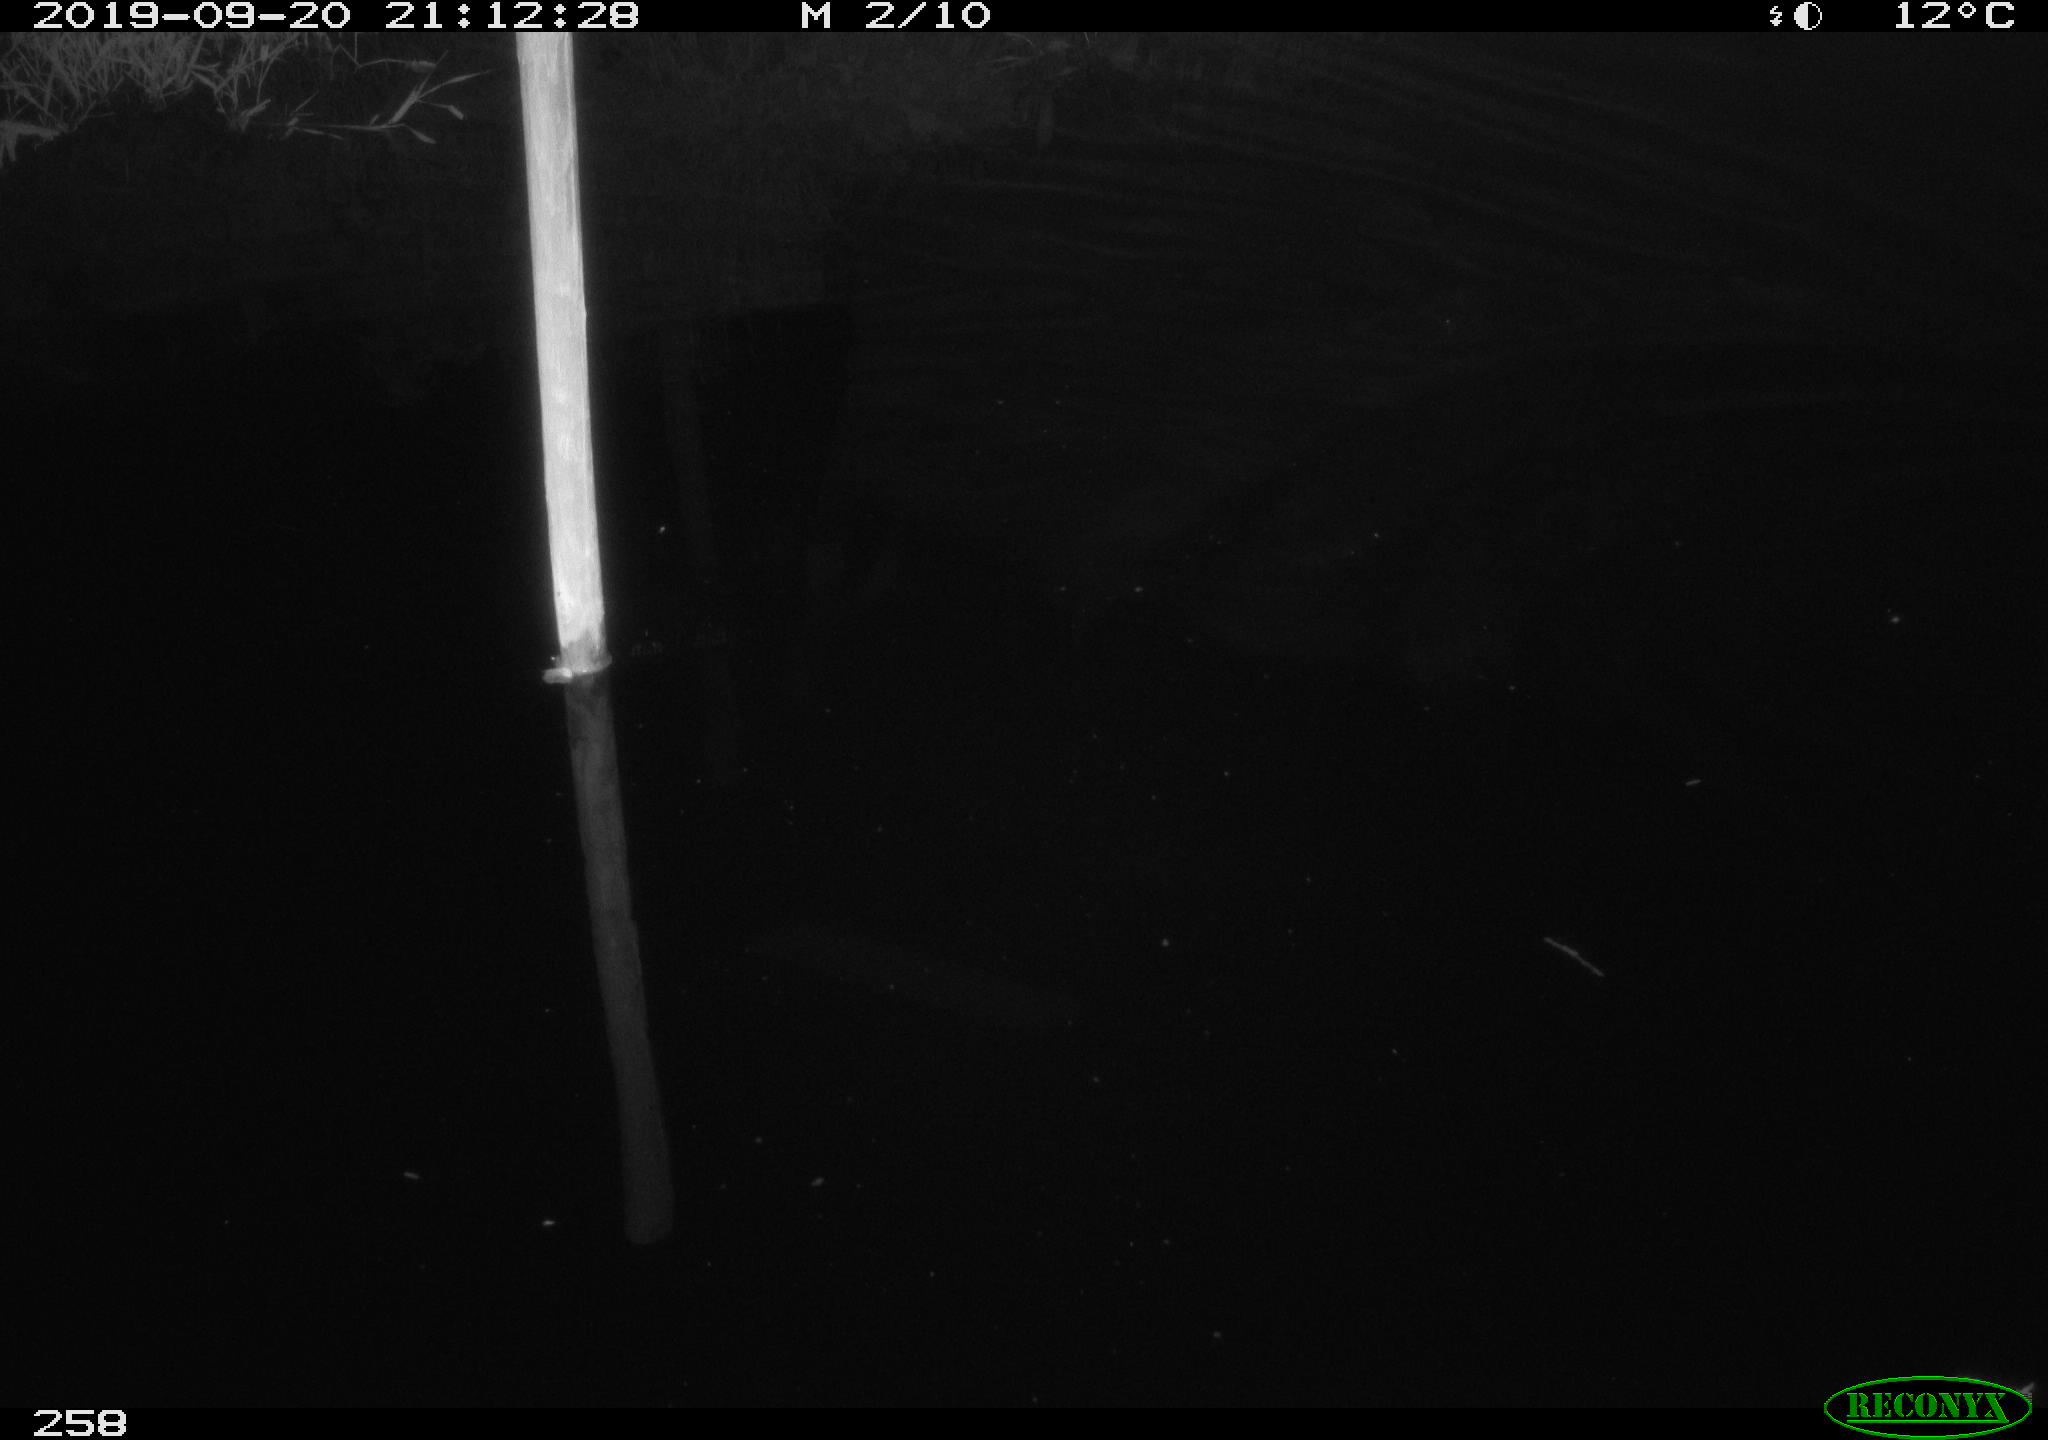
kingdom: Animalia
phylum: Chordata
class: Aves
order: Anseriformes
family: Anatidae
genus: Anas
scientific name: Anas platyrhynchos
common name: Mallard
